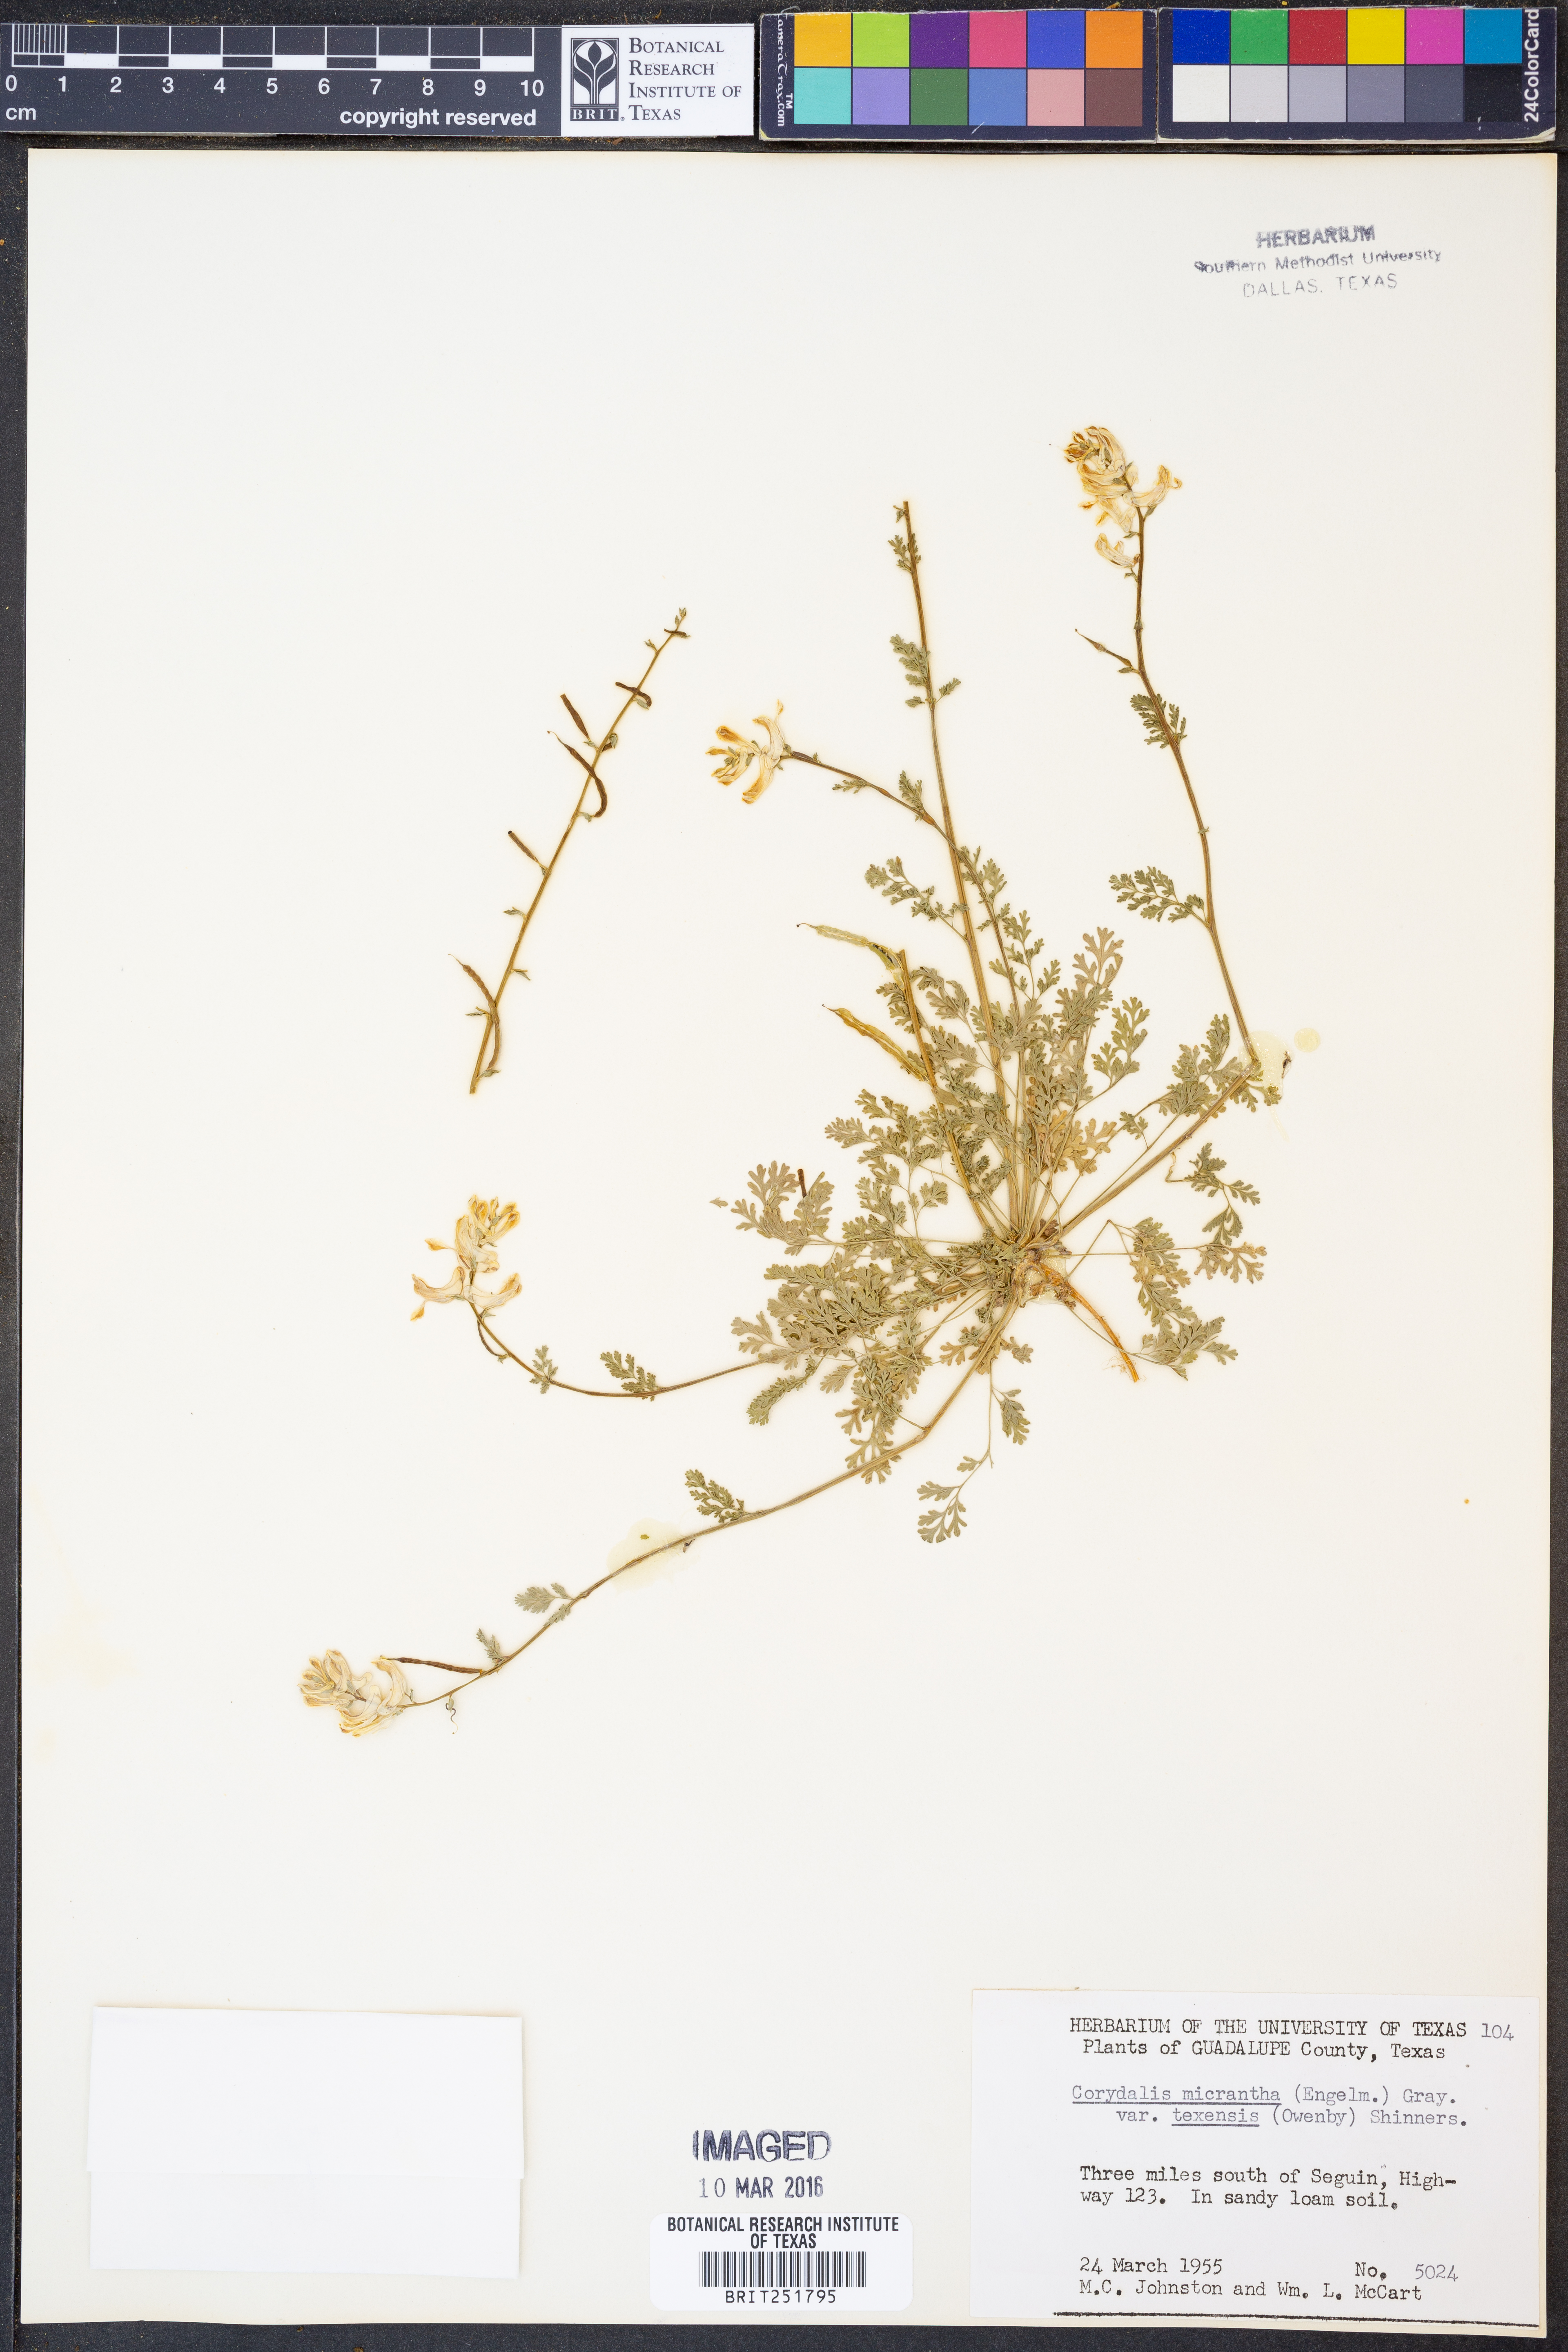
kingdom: Plantae
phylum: Tracheophyta
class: Magnoliopsida
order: Ranunculales
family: Papaveraceae
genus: Corydalis
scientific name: Corydalis micrantha
